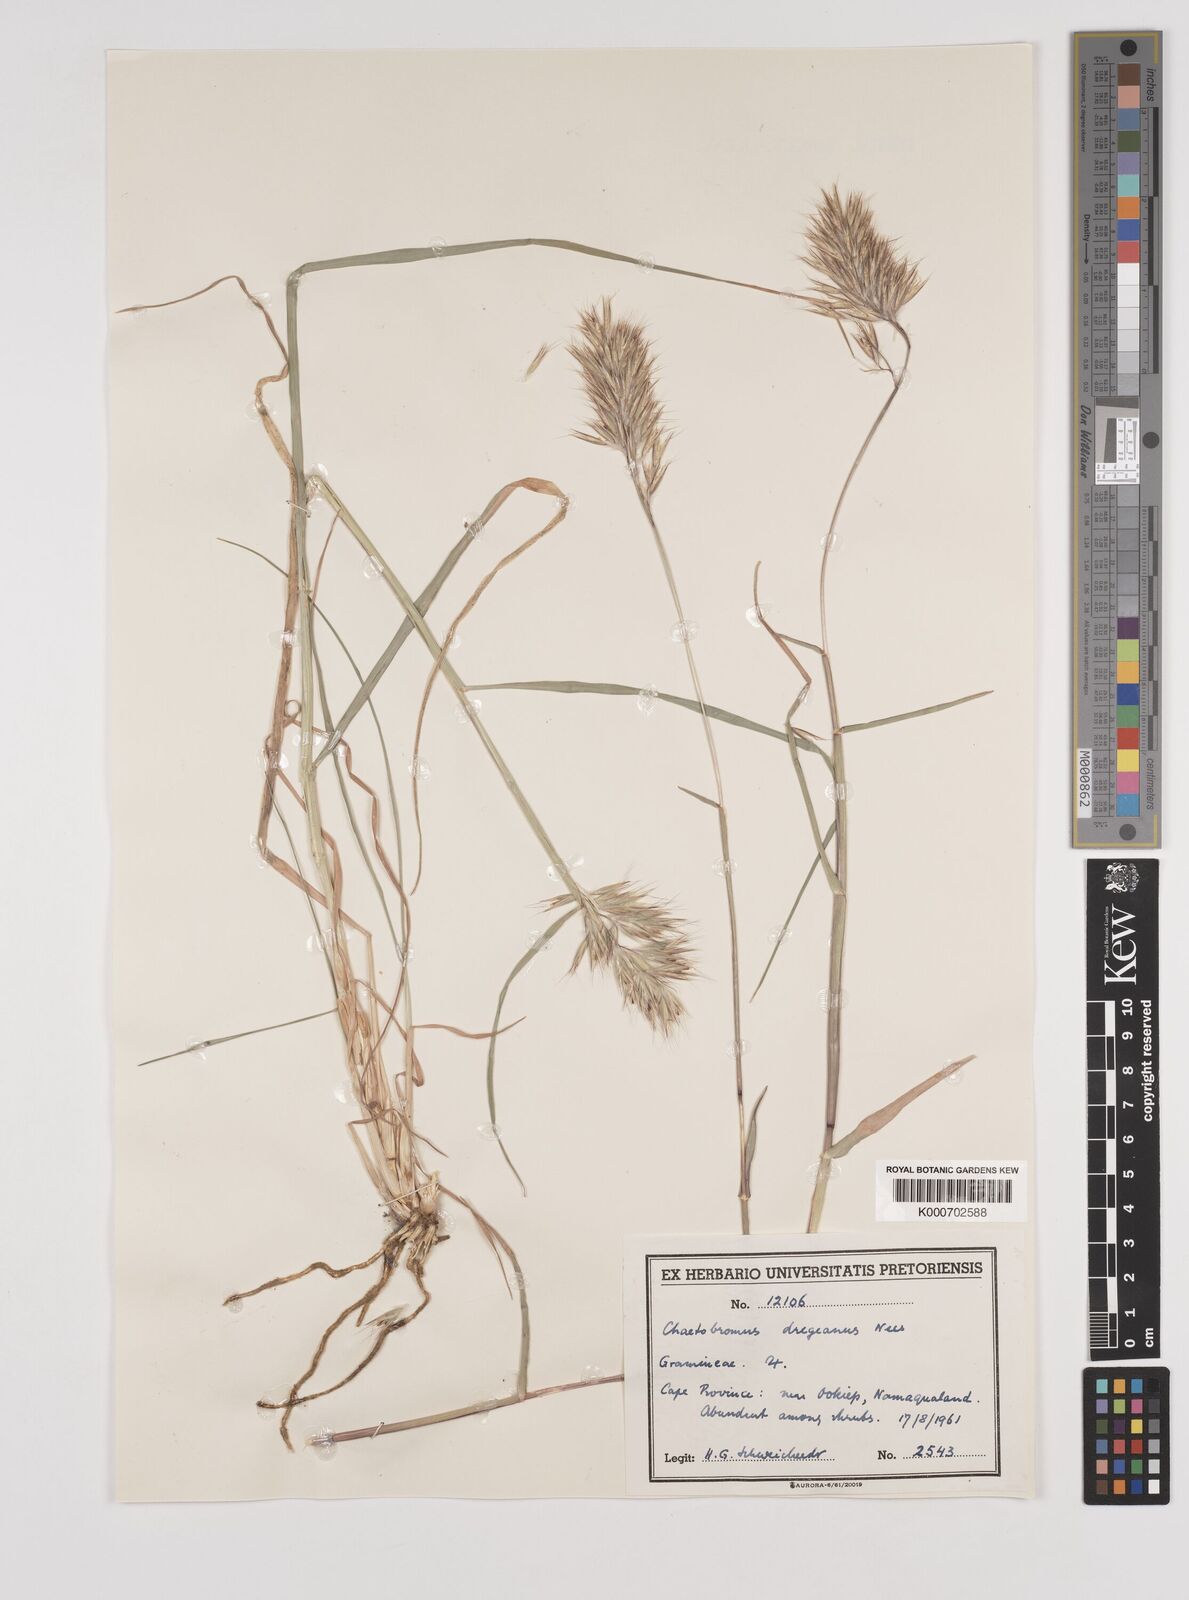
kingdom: Plantae
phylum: Tracheophyta
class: Liliopsida
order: Poales
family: Poaceae
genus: Chaetobromus
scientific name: Chaetobromus involucratus
